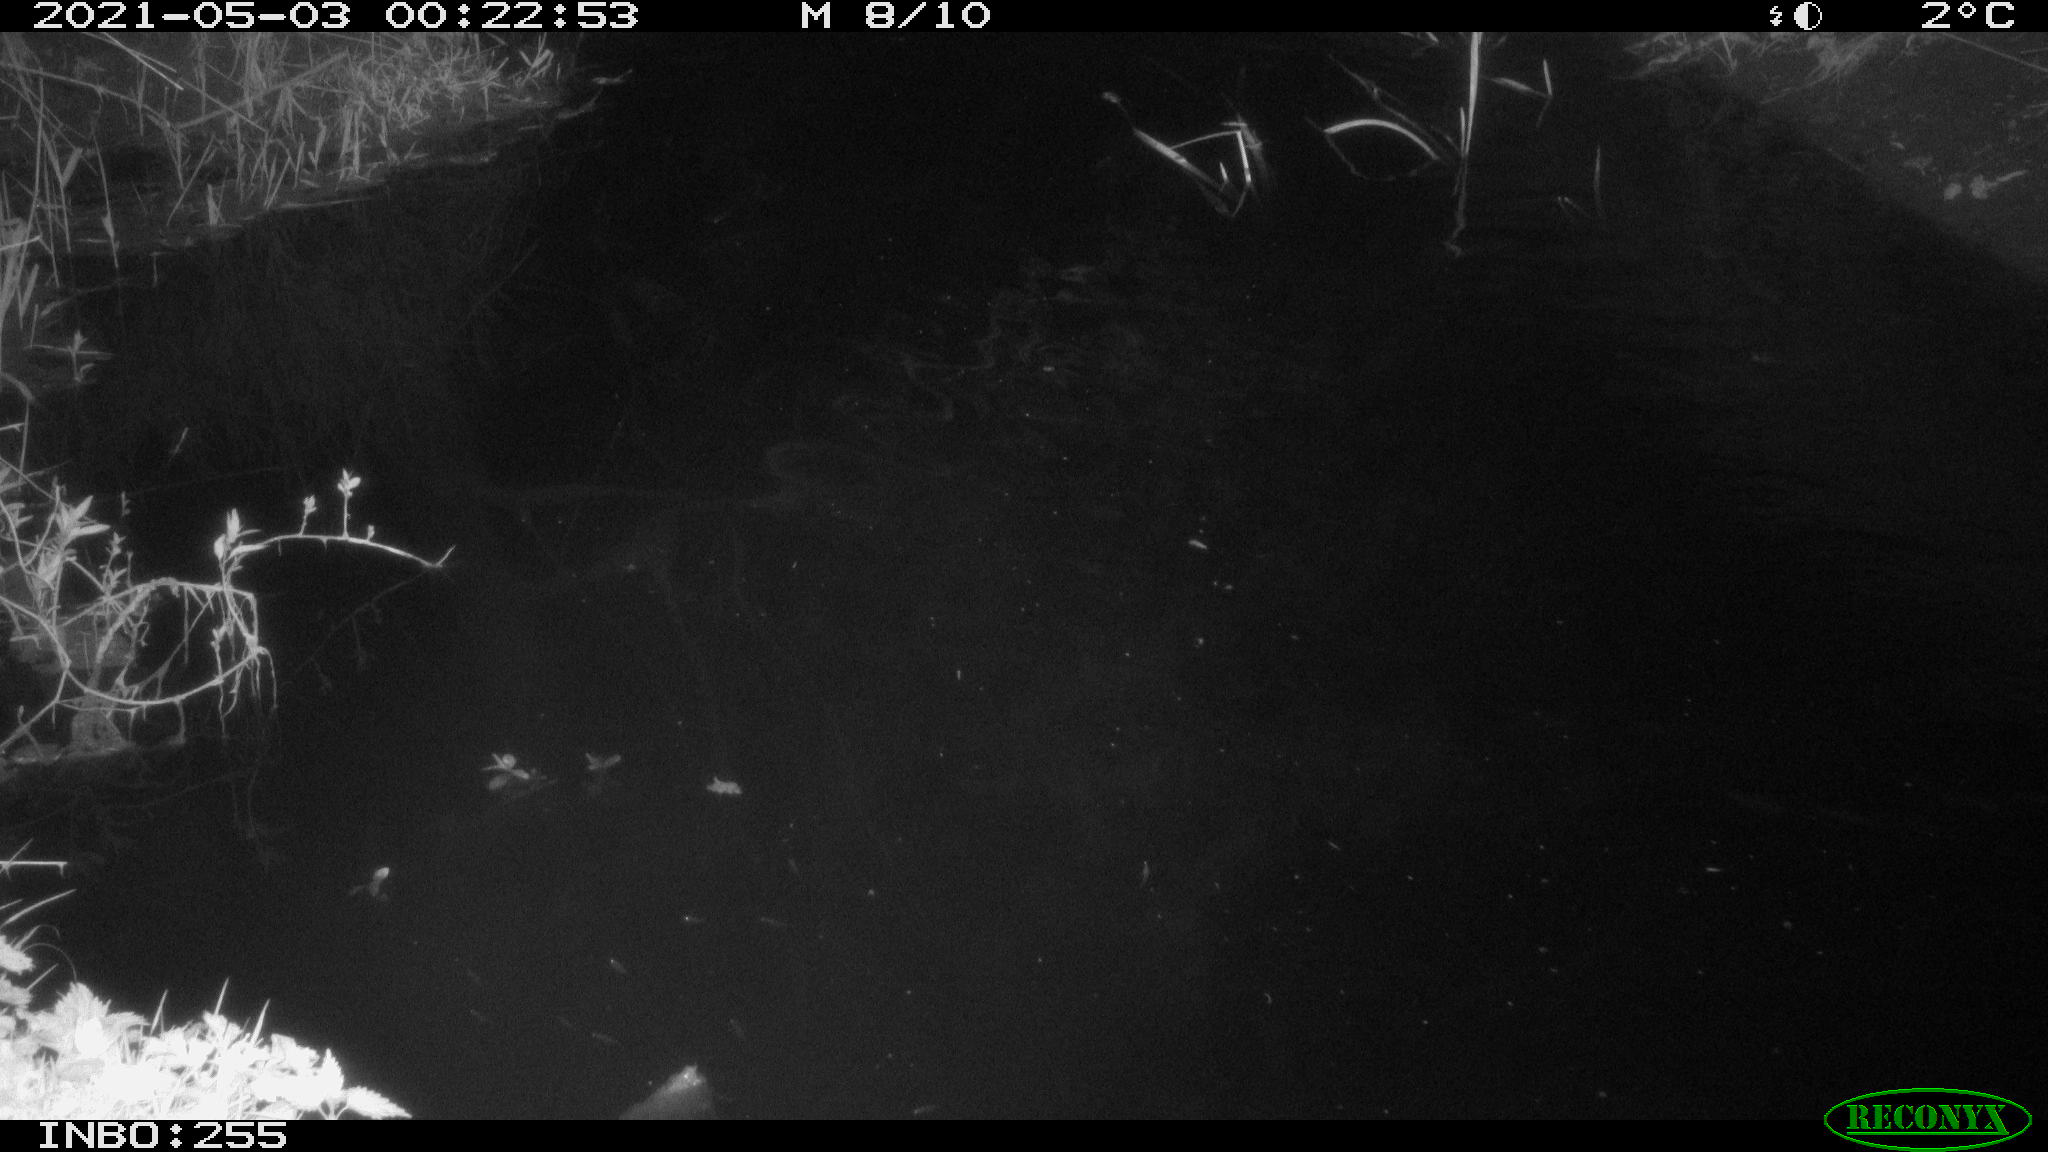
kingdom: Animalia
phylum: Chordata
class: Aves
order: Anseriformes
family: Anatidae
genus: Anas
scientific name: Anas platyrhynchos
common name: Mallard
